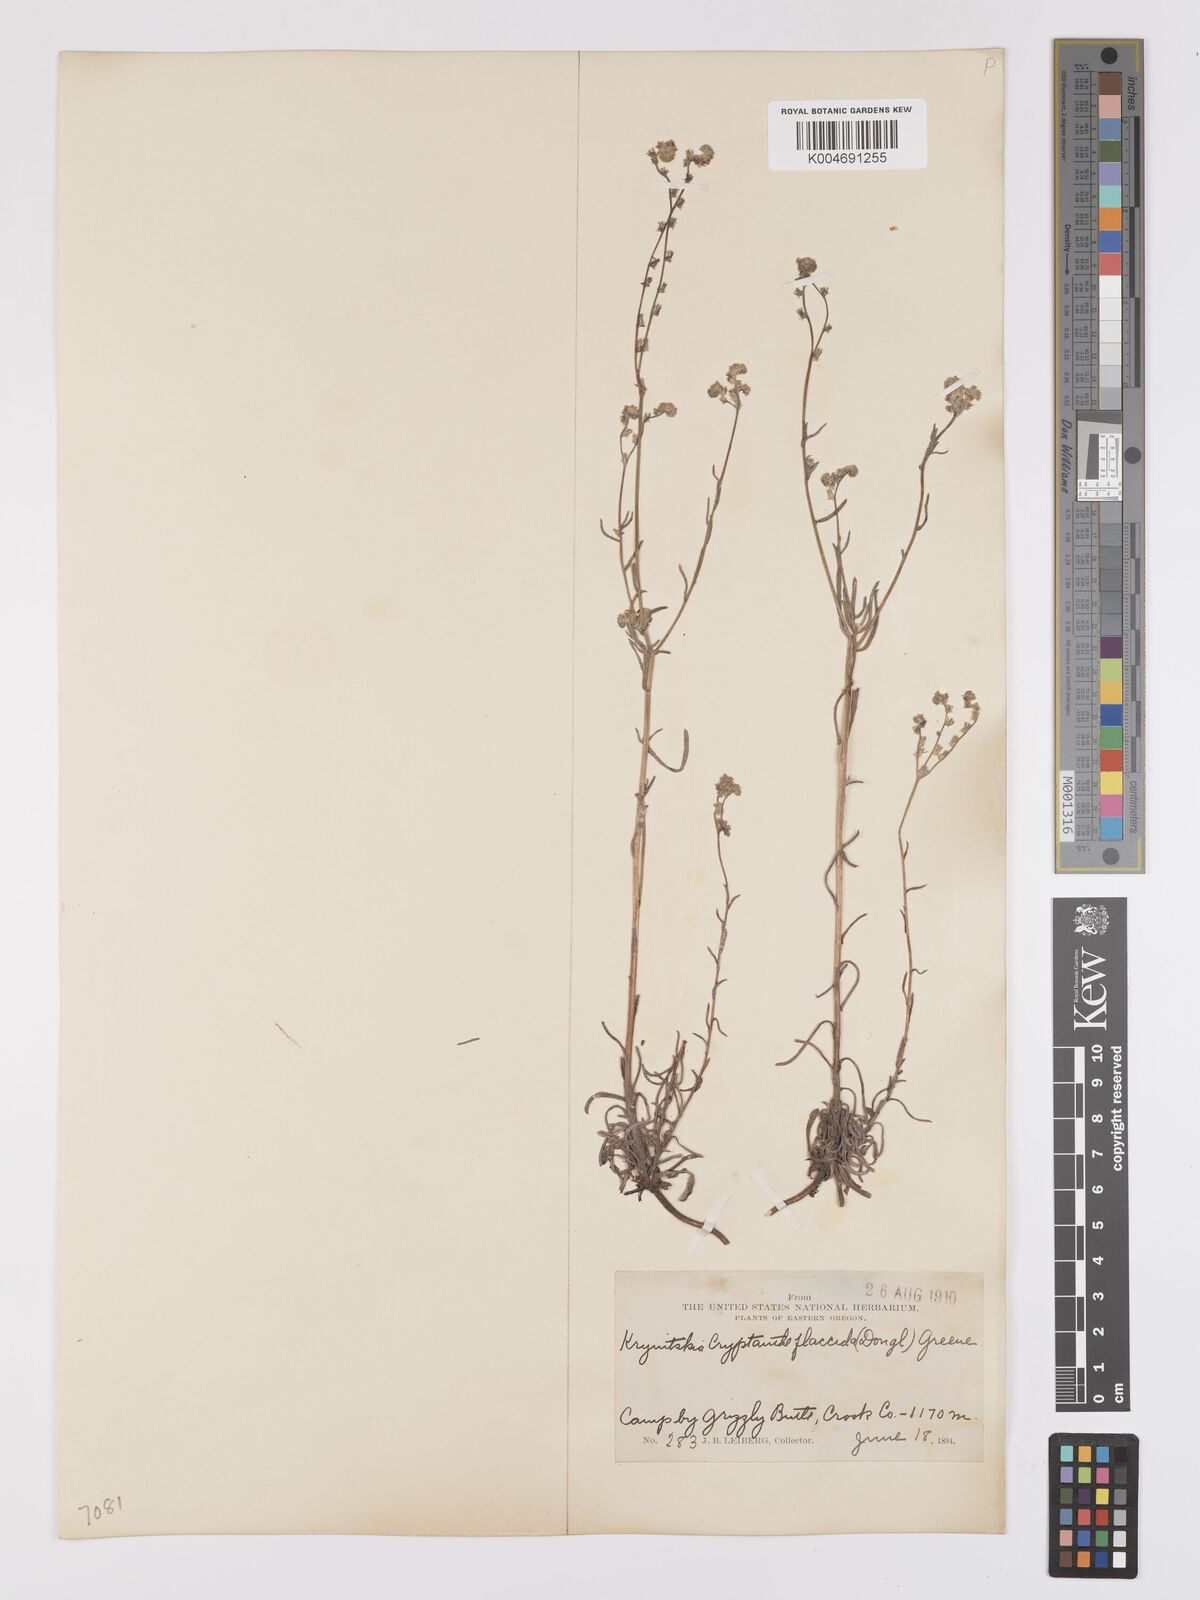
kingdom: Plantae
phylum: Tracheophyta
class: Magnoliopsida
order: Boraginales
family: Boraginaceae
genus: Cryptantha
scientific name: Cryptantha flaccida
